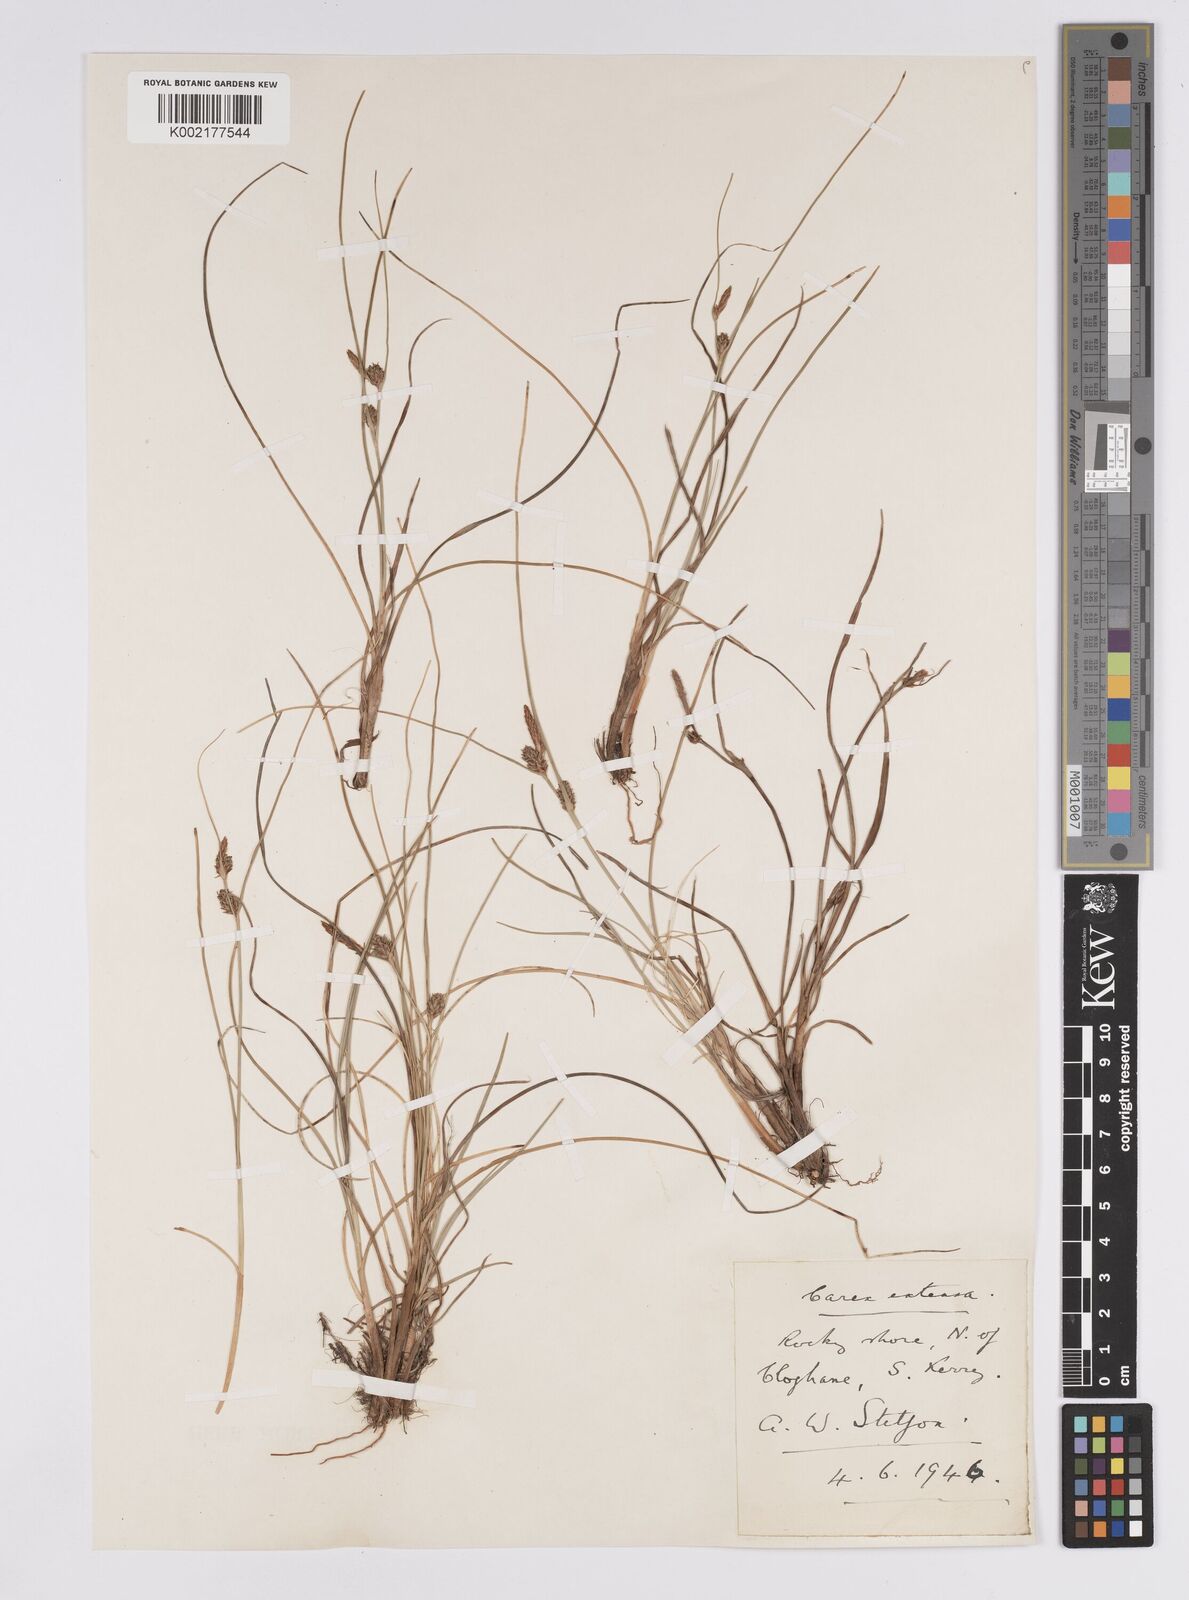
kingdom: Plantae
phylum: Tracheophyta
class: Liliopsida
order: Poales
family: Cyperaceae
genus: Carex
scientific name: Carex extensa
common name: Long-bracted sedge
